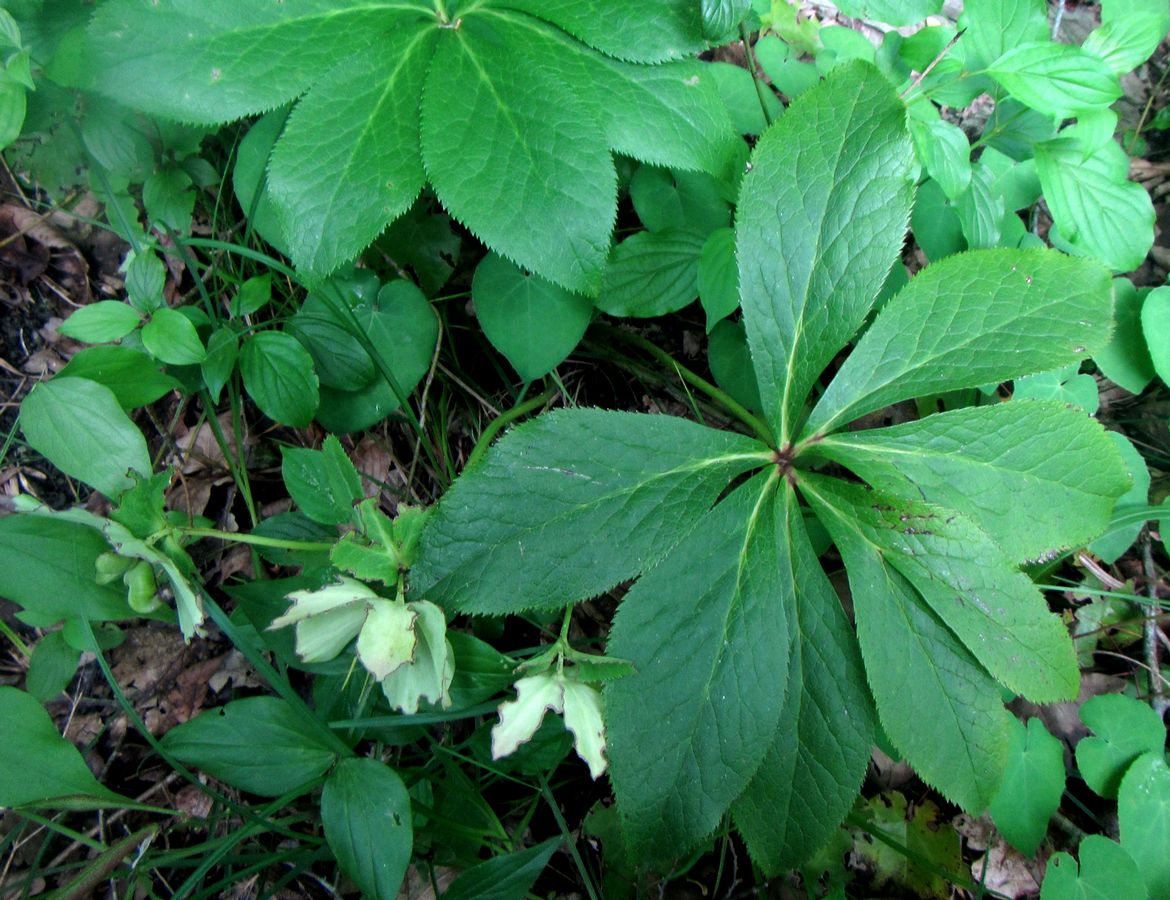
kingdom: Plantae
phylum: Tracheophyta
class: Magnoliopsida
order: Ranunculales
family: Ranunculaceae
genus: Helleborus
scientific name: Helleborus orientalis
